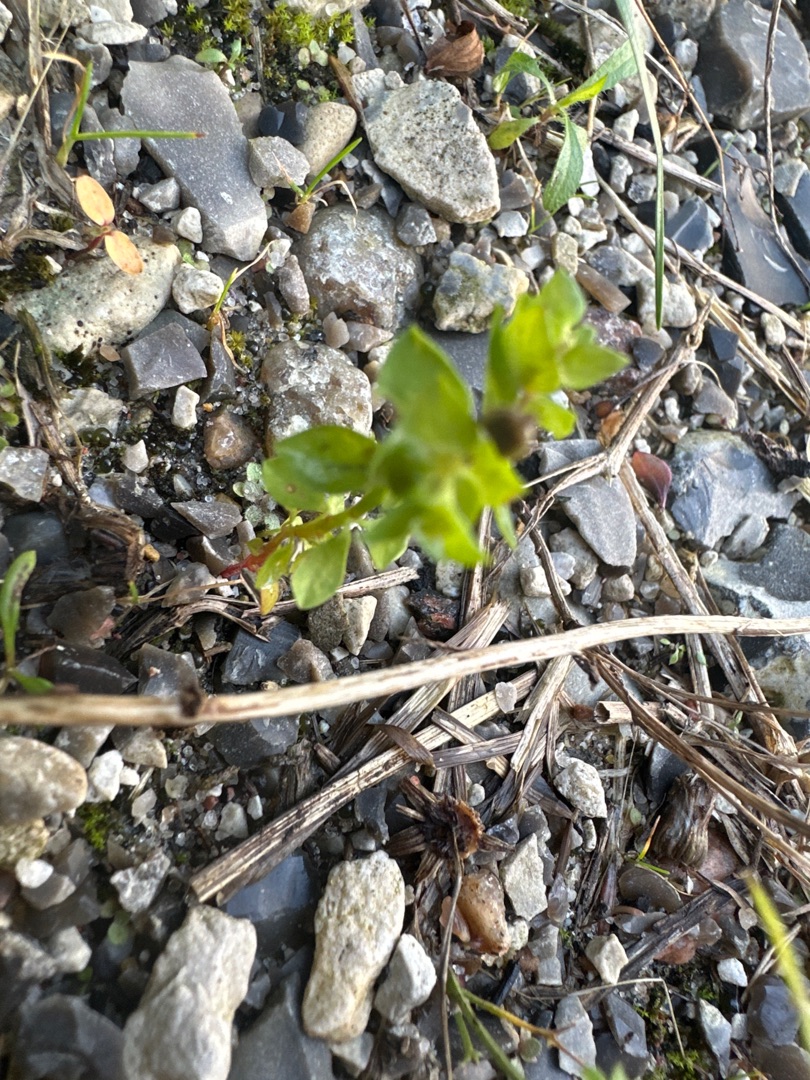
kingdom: Plantae
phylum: Tracheophyta
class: Magnoliopsida
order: Malpighiales
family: Euphorbiaceae
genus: Euphorbia
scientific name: Euphorbia peplus
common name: Gaffel-vortemælk
